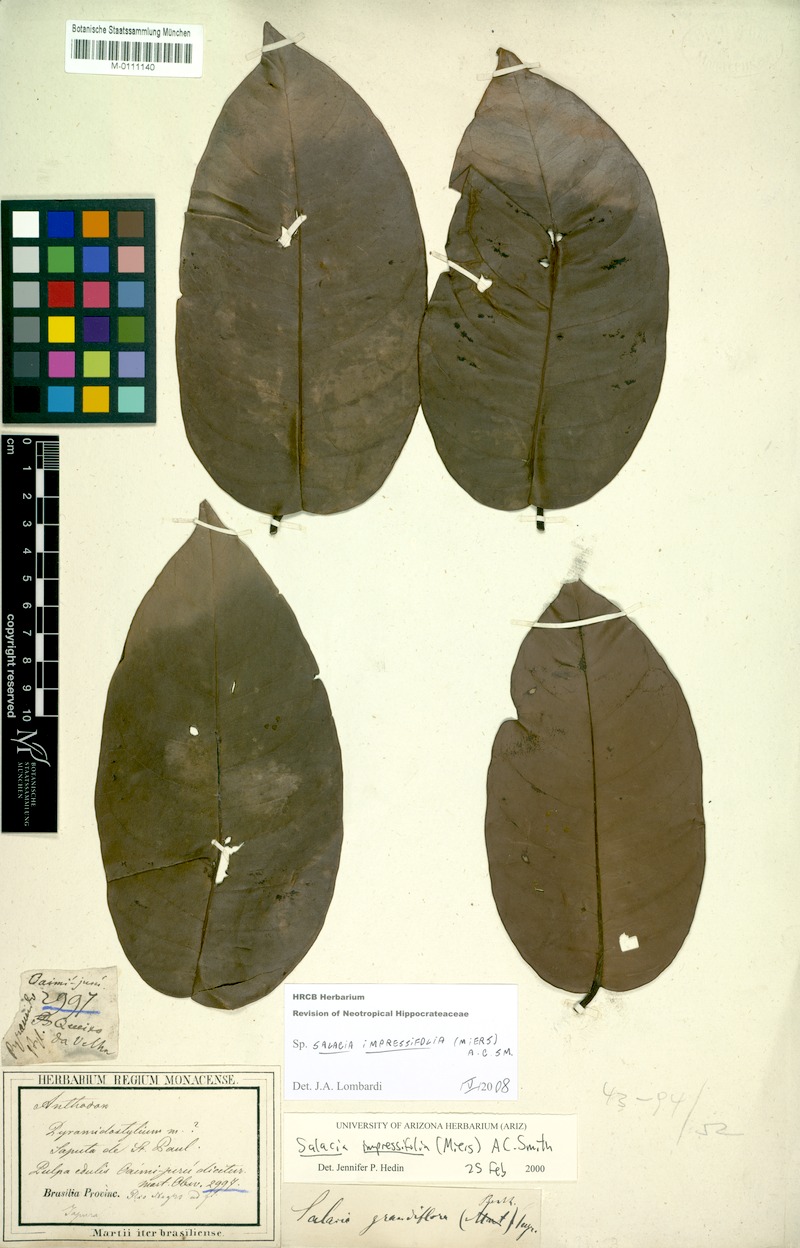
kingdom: Plantae
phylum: Tracheophyta
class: Magnoliopsida
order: Celastrales
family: Celastraceae
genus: Salacia
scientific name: Salacia impressifolia
